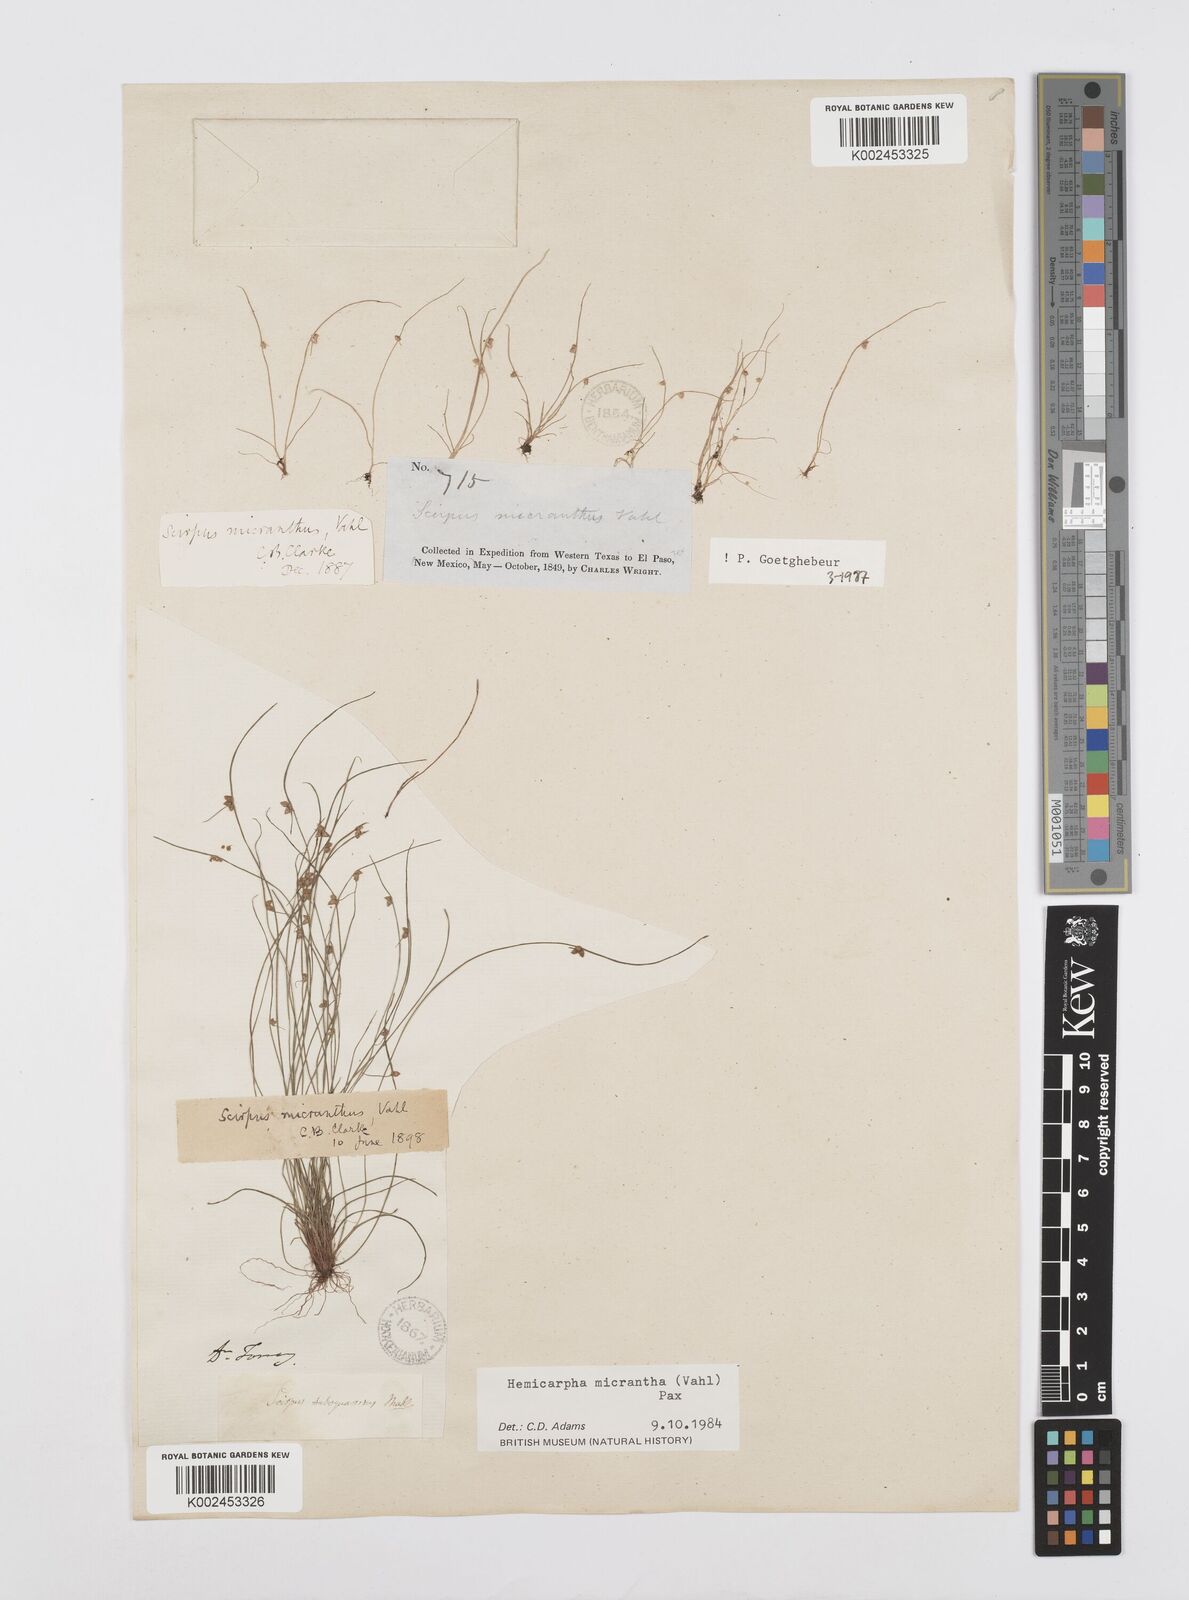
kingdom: Plantae
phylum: Tracheophyta
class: Liliopsida
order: Poales
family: Cyperaceae
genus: Cyperus
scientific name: Cyperus dentatus
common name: Dentate umbrella sedge
